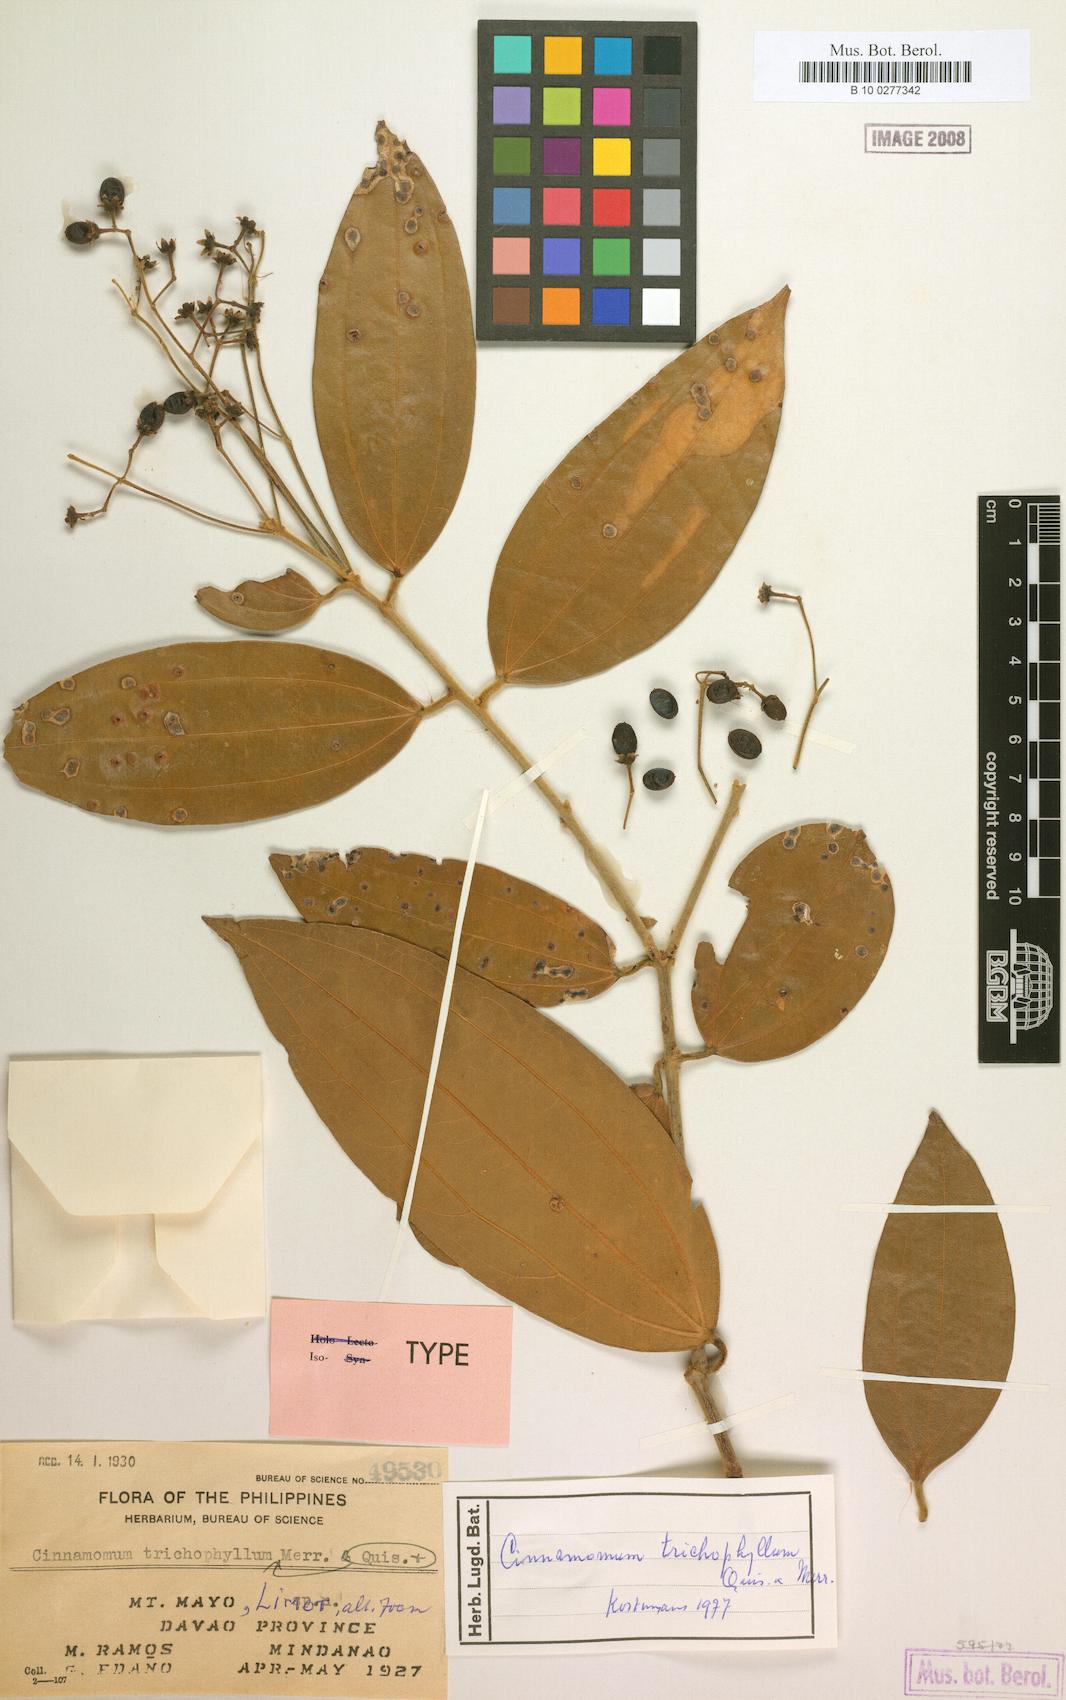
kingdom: Plantae
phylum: Tracheophyta
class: Magnoliopsida
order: Laurales
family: Lauraceae
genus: Cinnamomum
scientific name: Cinnamomum trichophyllum
